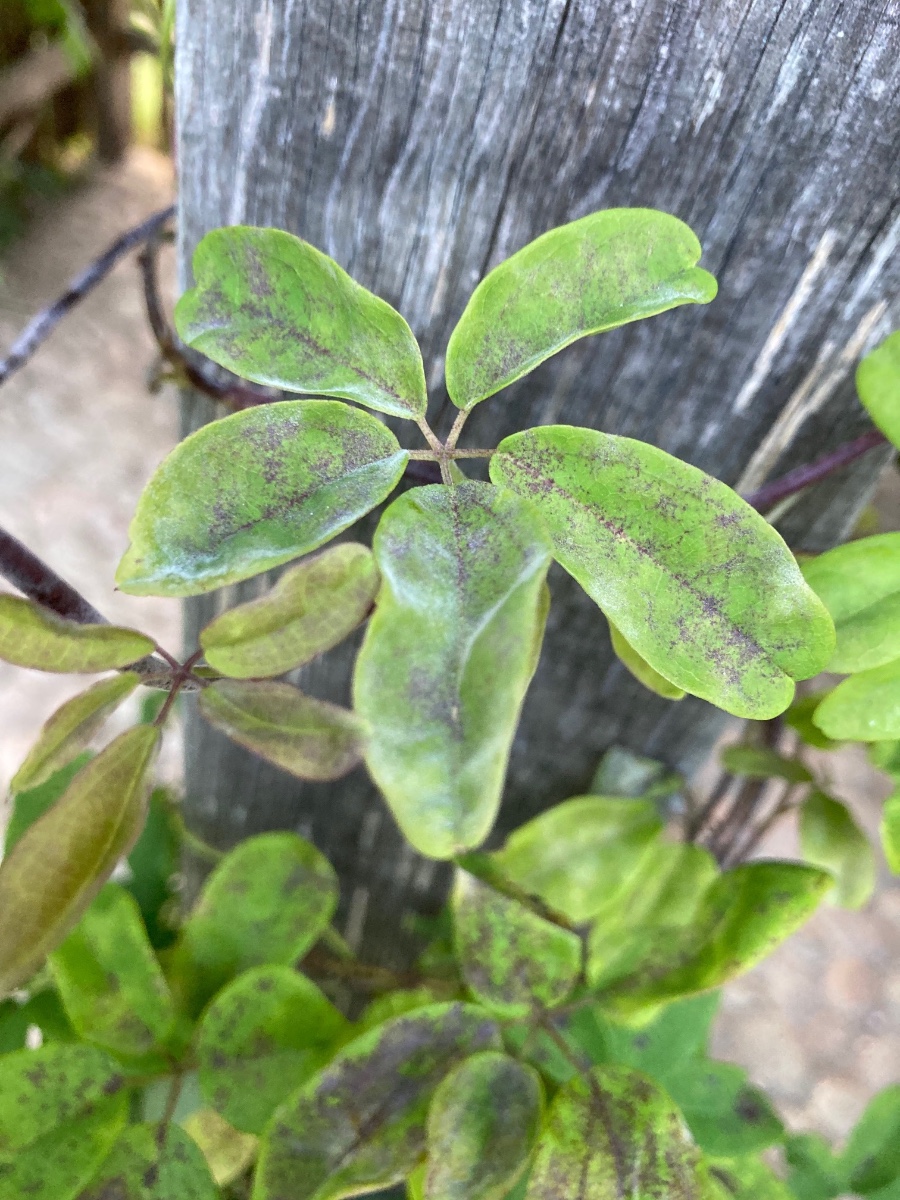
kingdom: Fungi
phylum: Ascomycota
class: Leotiomycetes
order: Helotiales
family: Erysiphaceae
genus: Erysiphe
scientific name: Erysiphe akebiae
